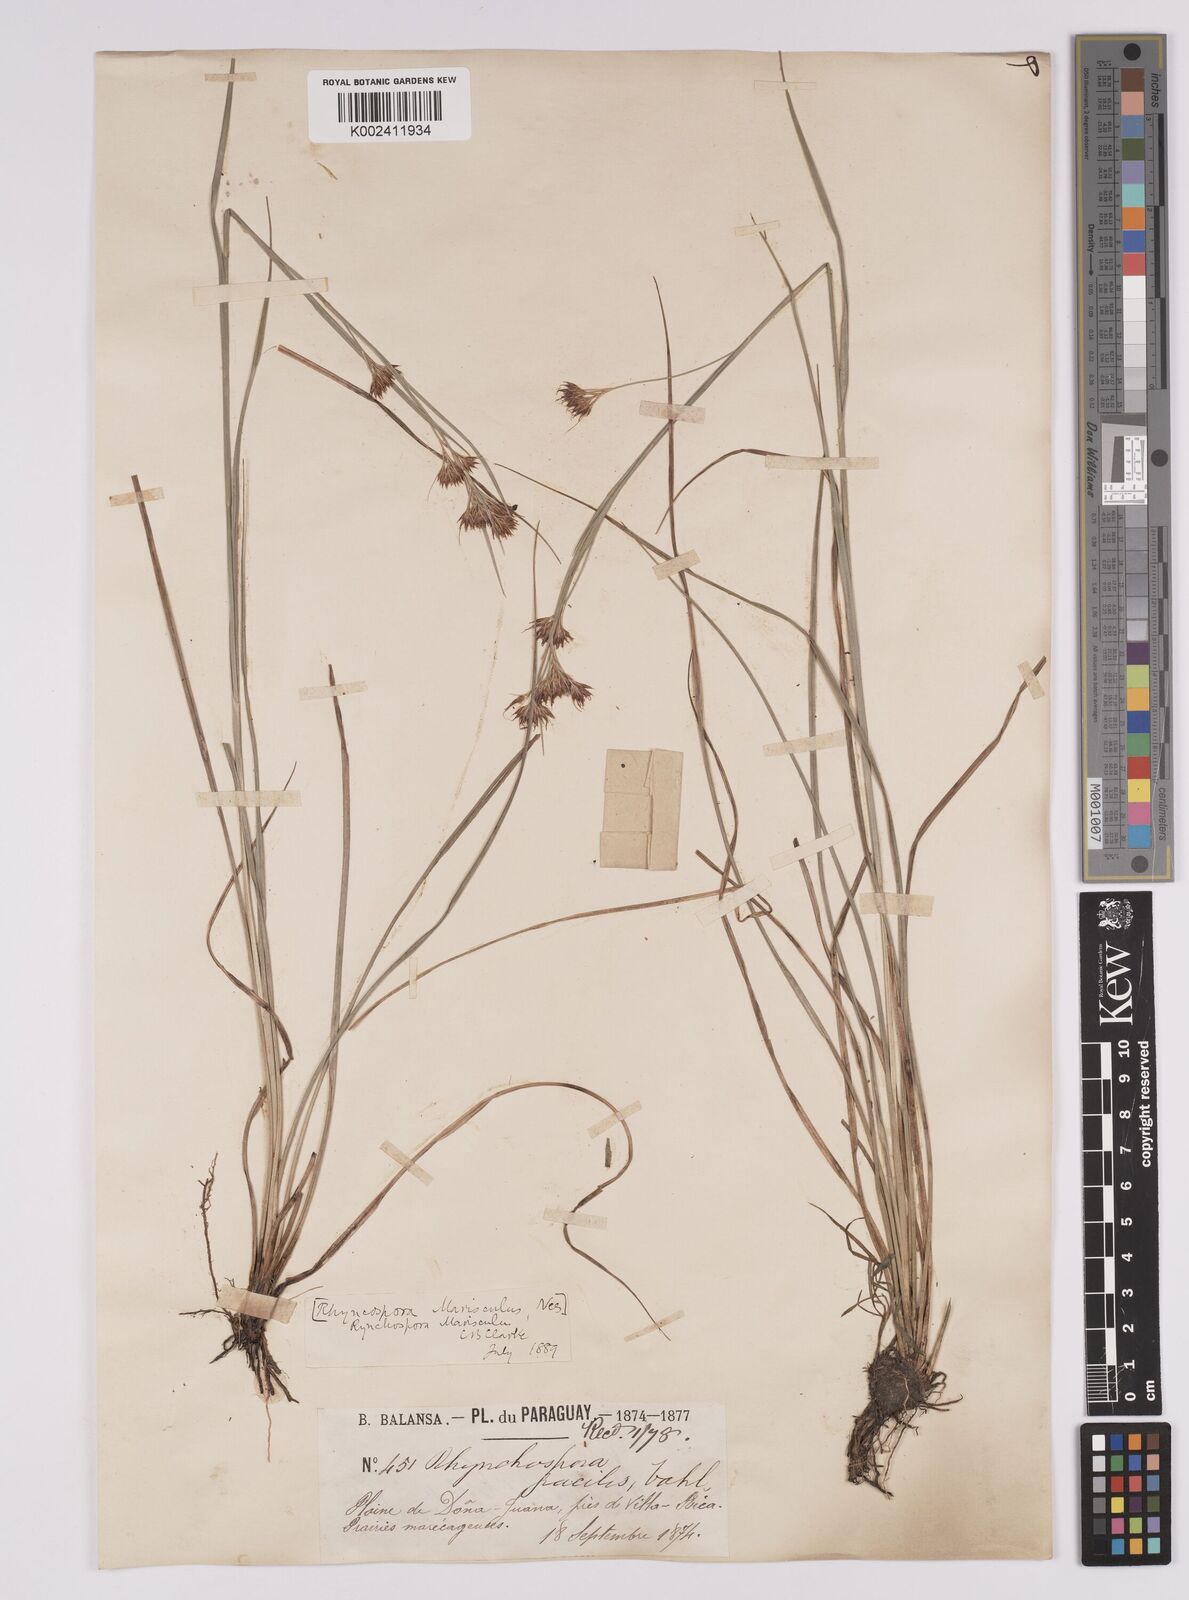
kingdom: Plantae
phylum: Tracheophyta
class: Liliopsida
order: Poales
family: Cyperaceae
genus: Rhynchospora
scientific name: Rhynchospora marisculus
